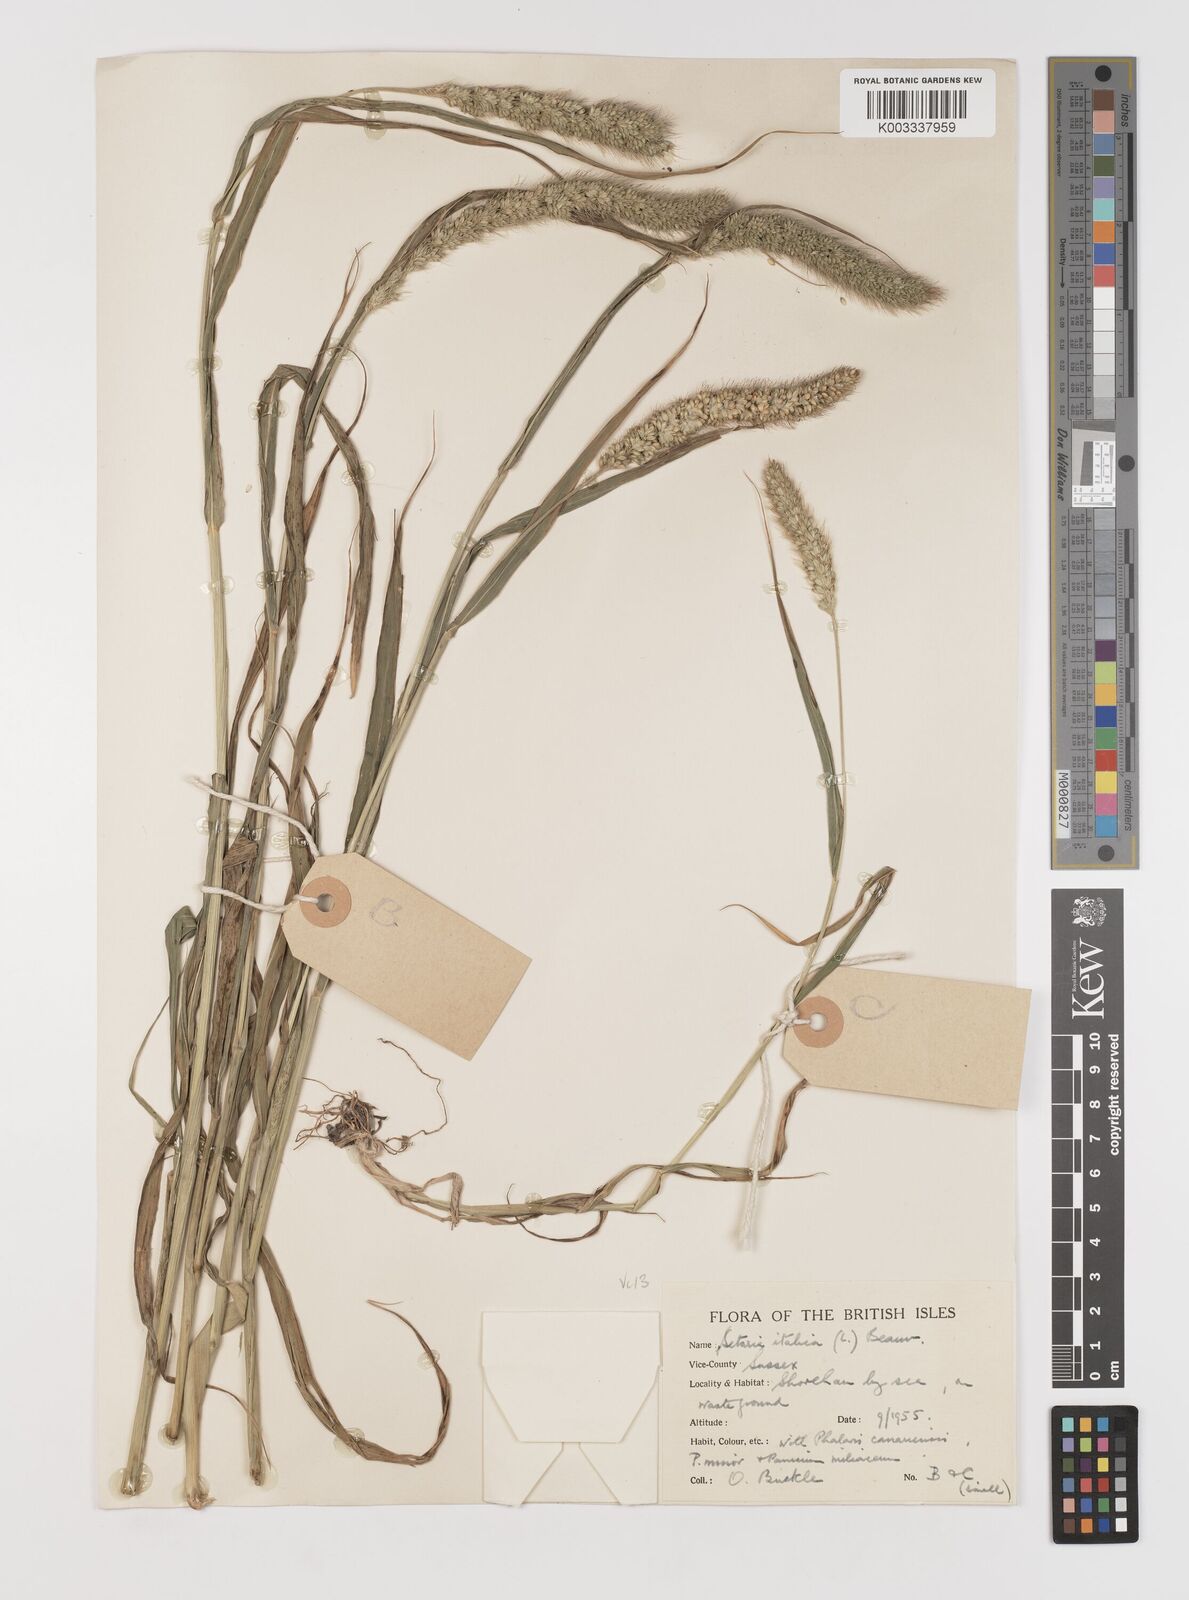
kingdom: Plantae
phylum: Tracheophyta
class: Liliopsida
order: Poales
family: Poaceae
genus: Setaria
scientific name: Setaria italica
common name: Foxtail bristle-grass
